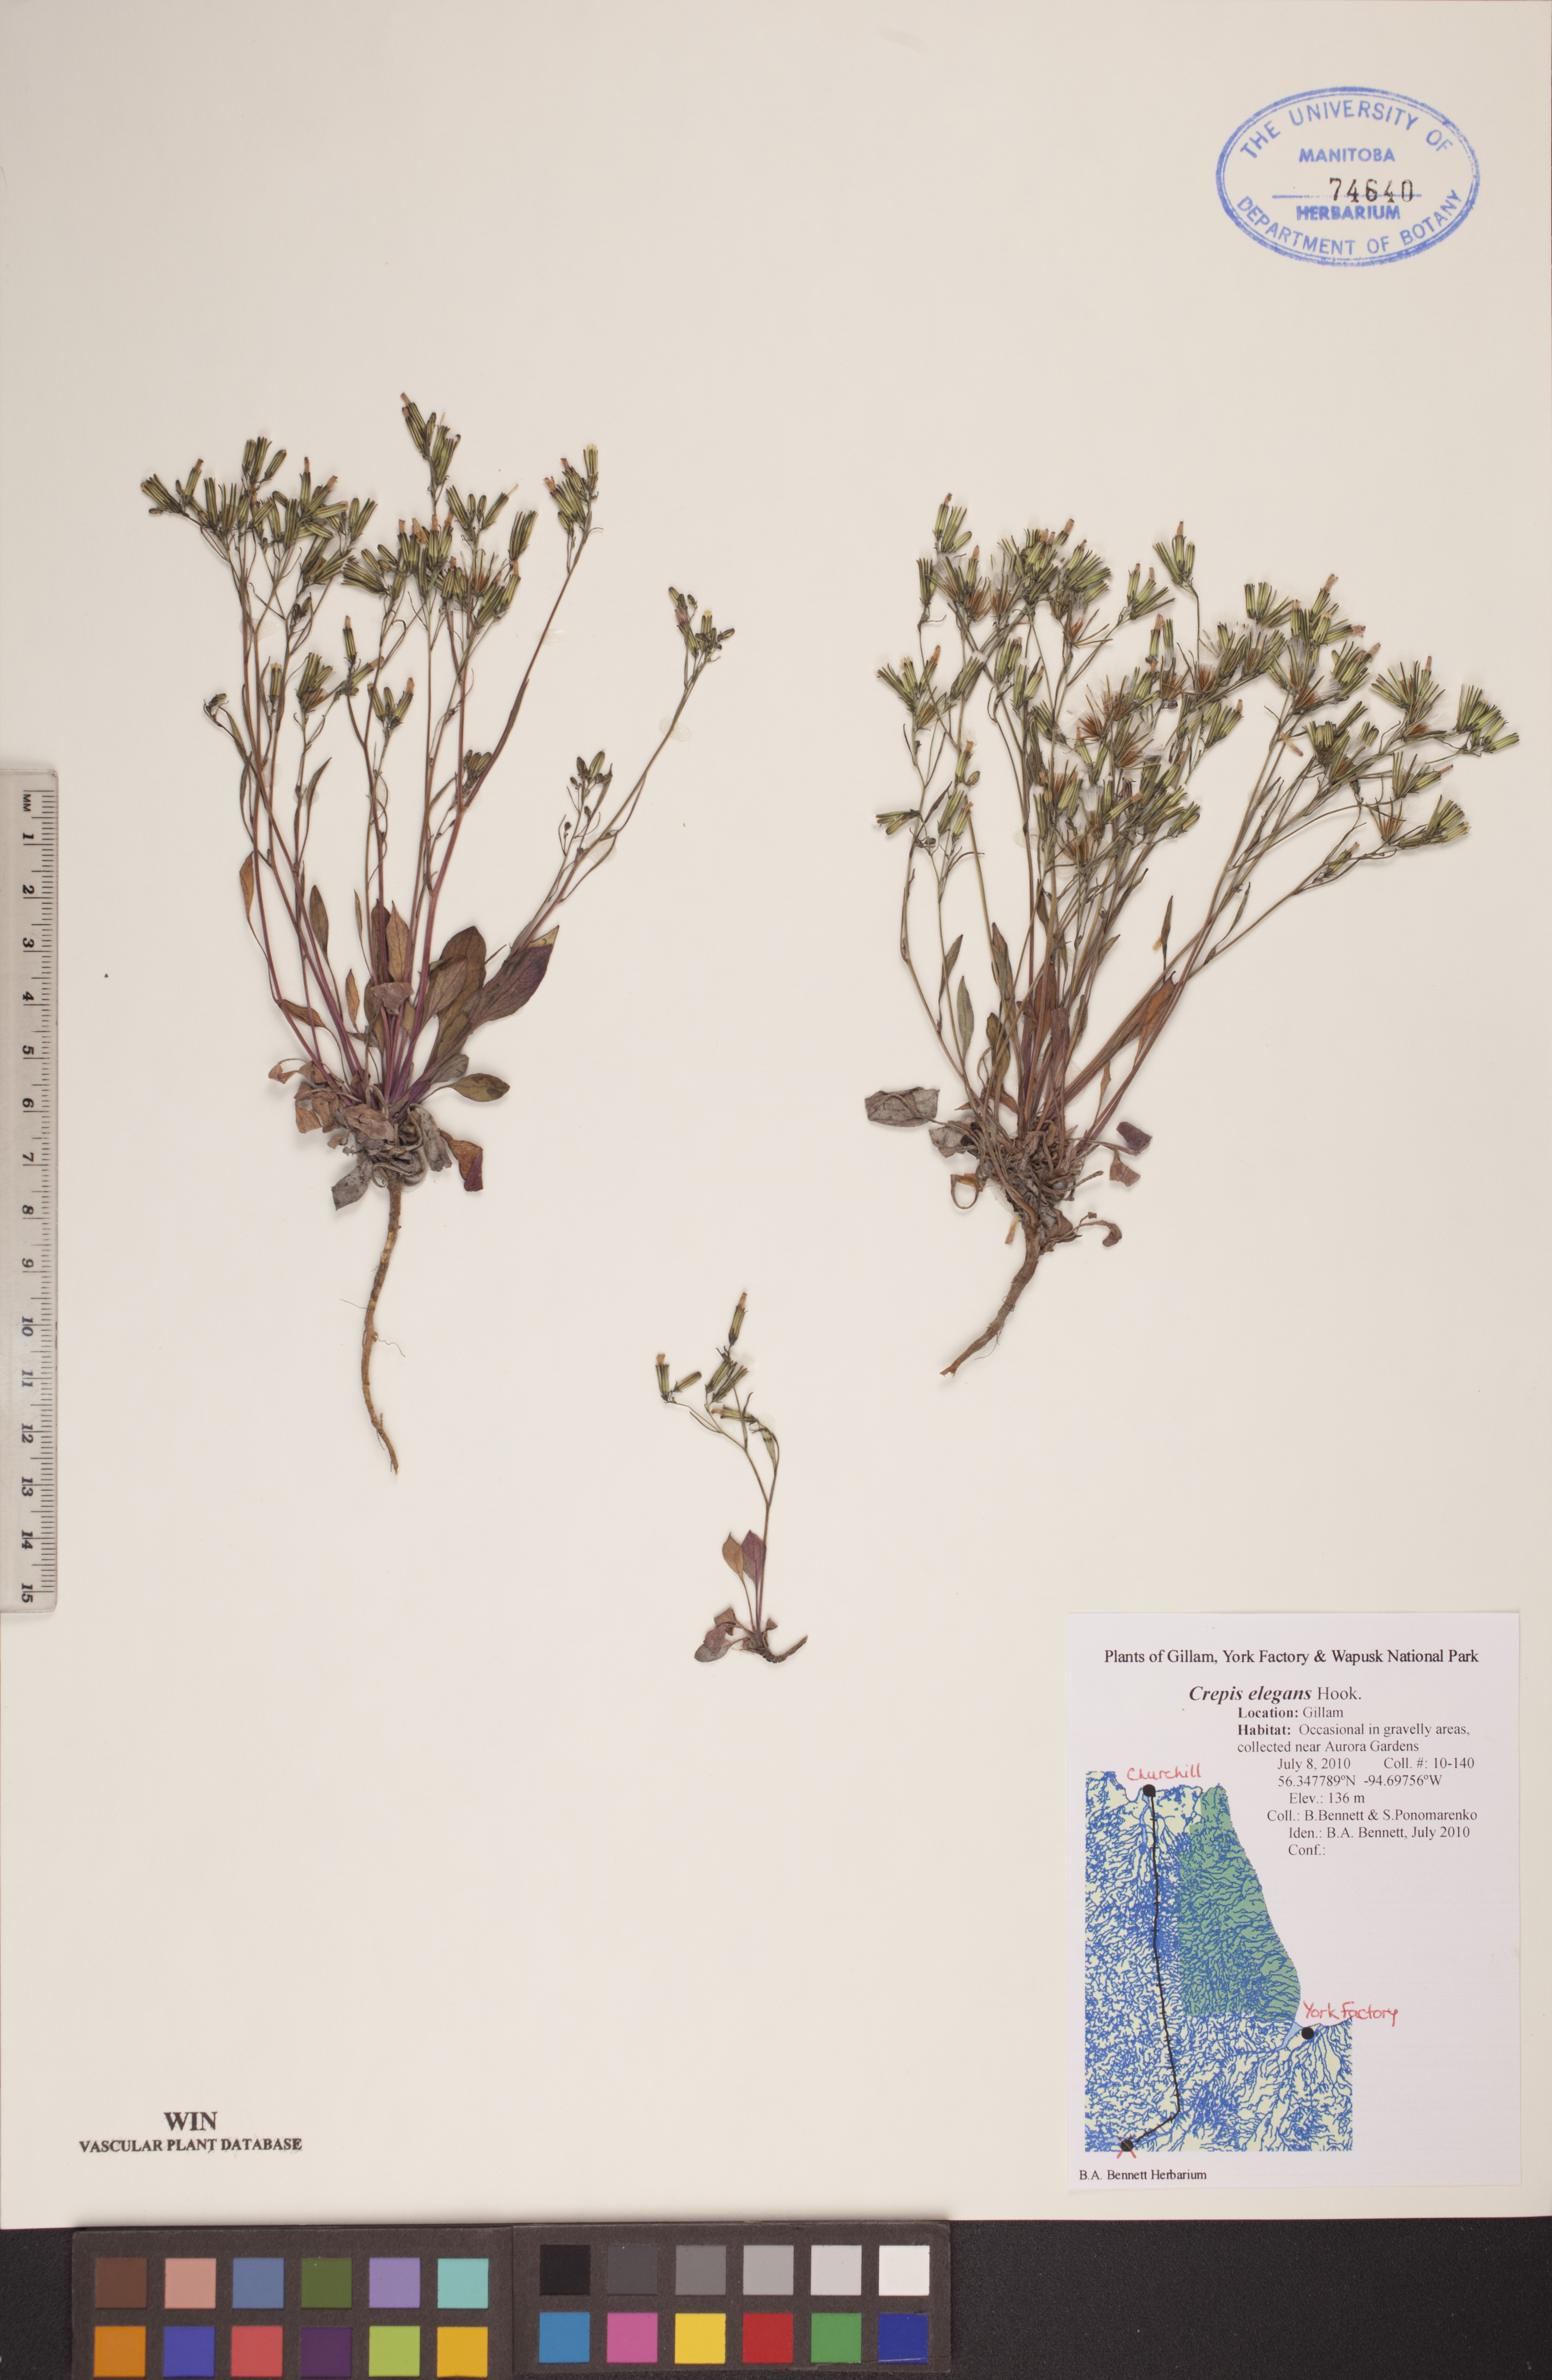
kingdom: Plantae
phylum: Tracheophyta
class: Magnoliopsida
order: Asterales
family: Asteraceae
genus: Askellia
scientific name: Askellia elegans
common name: Elegant hawksbeard
